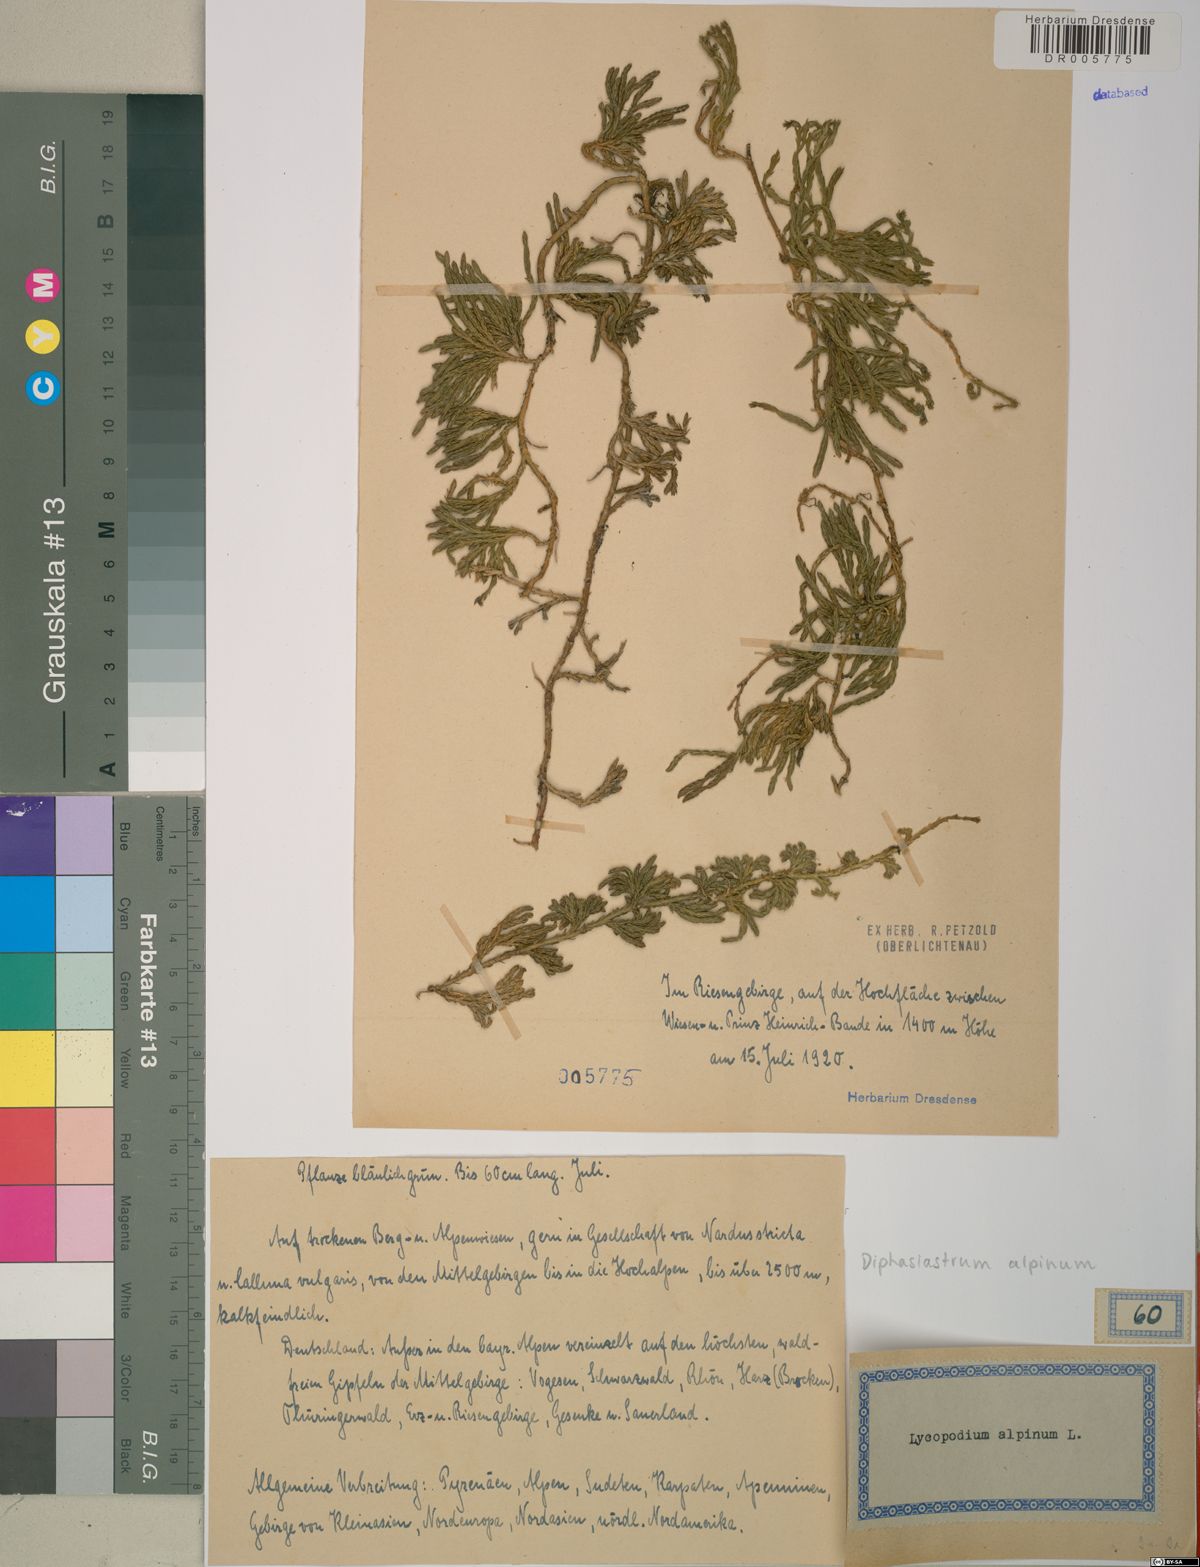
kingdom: Plantae
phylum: Tracheophyta
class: Lycopodiopsida
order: Lycopodiales
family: Lycopodiaceae
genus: Diphasiastrum
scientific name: Diphasiastrum alpinum
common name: Alpine clubmoss
